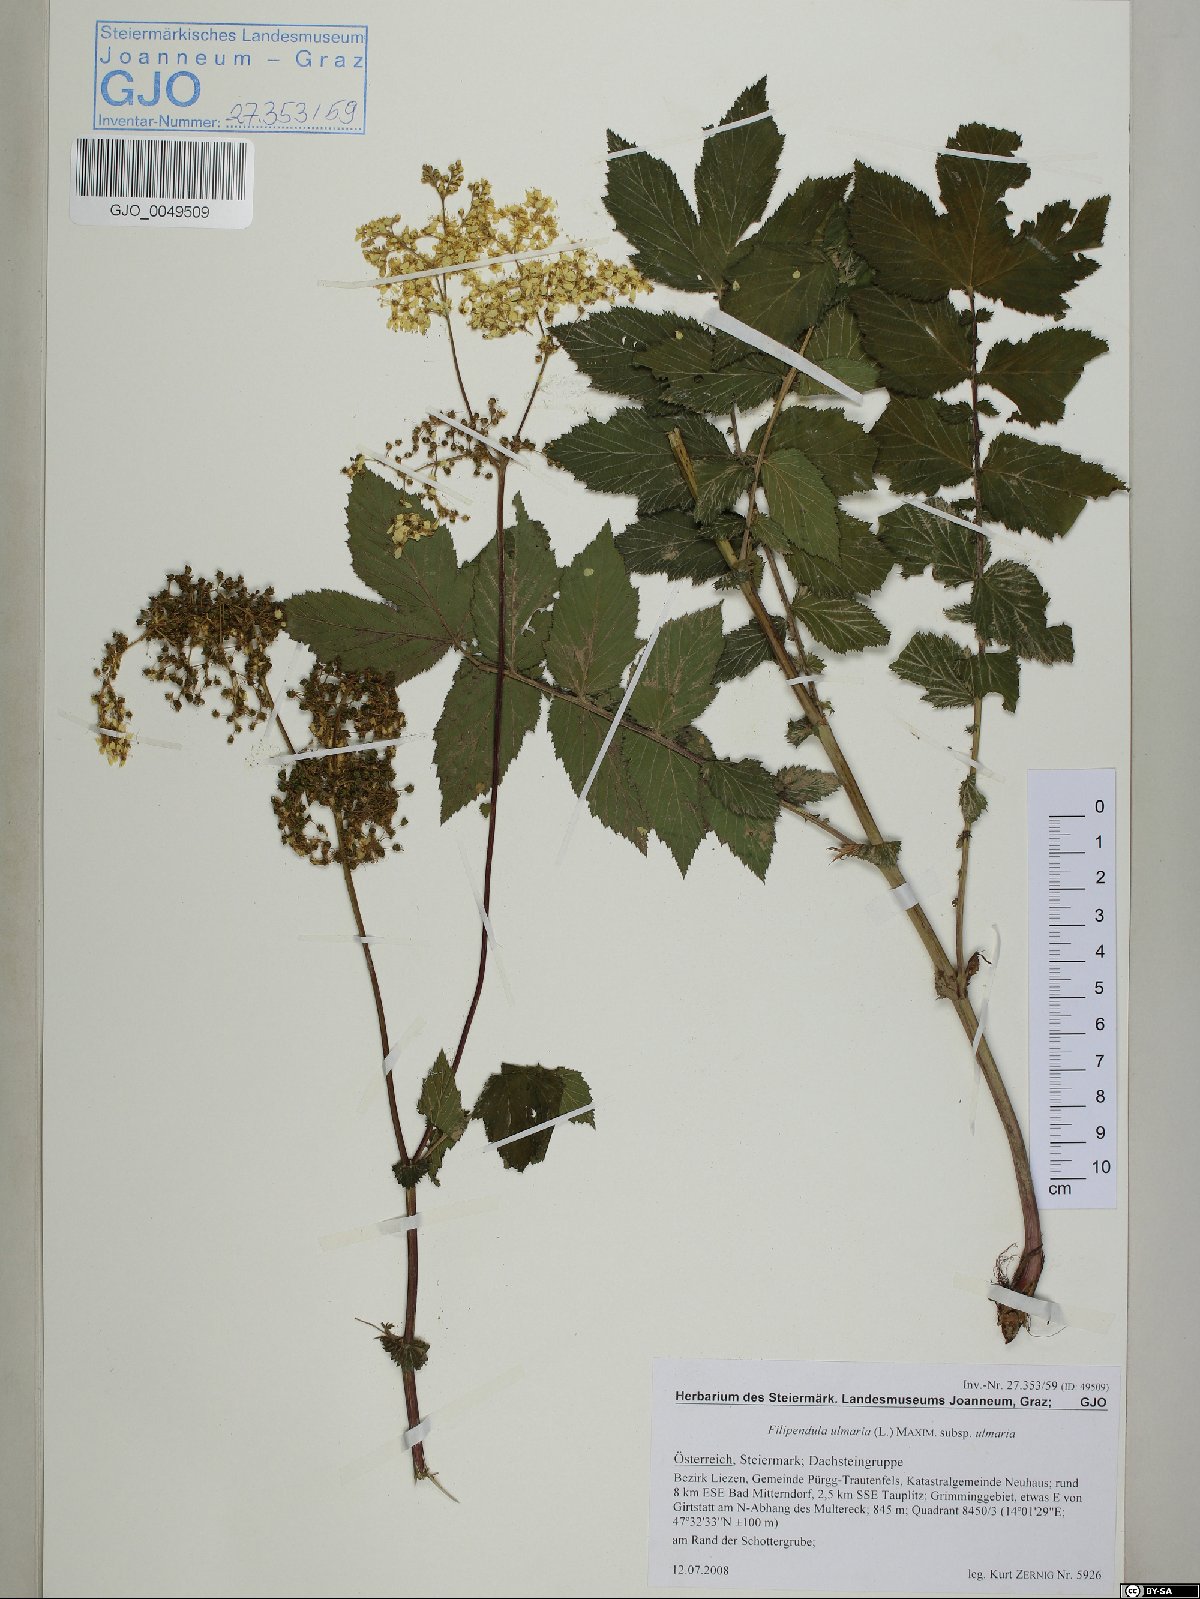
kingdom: Plantae
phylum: Tracheophyta
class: Magnoliopsida
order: Rosales
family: Rosaceae
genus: Filipendula
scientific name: Filipendula ulmaria
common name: Meadowsweet
